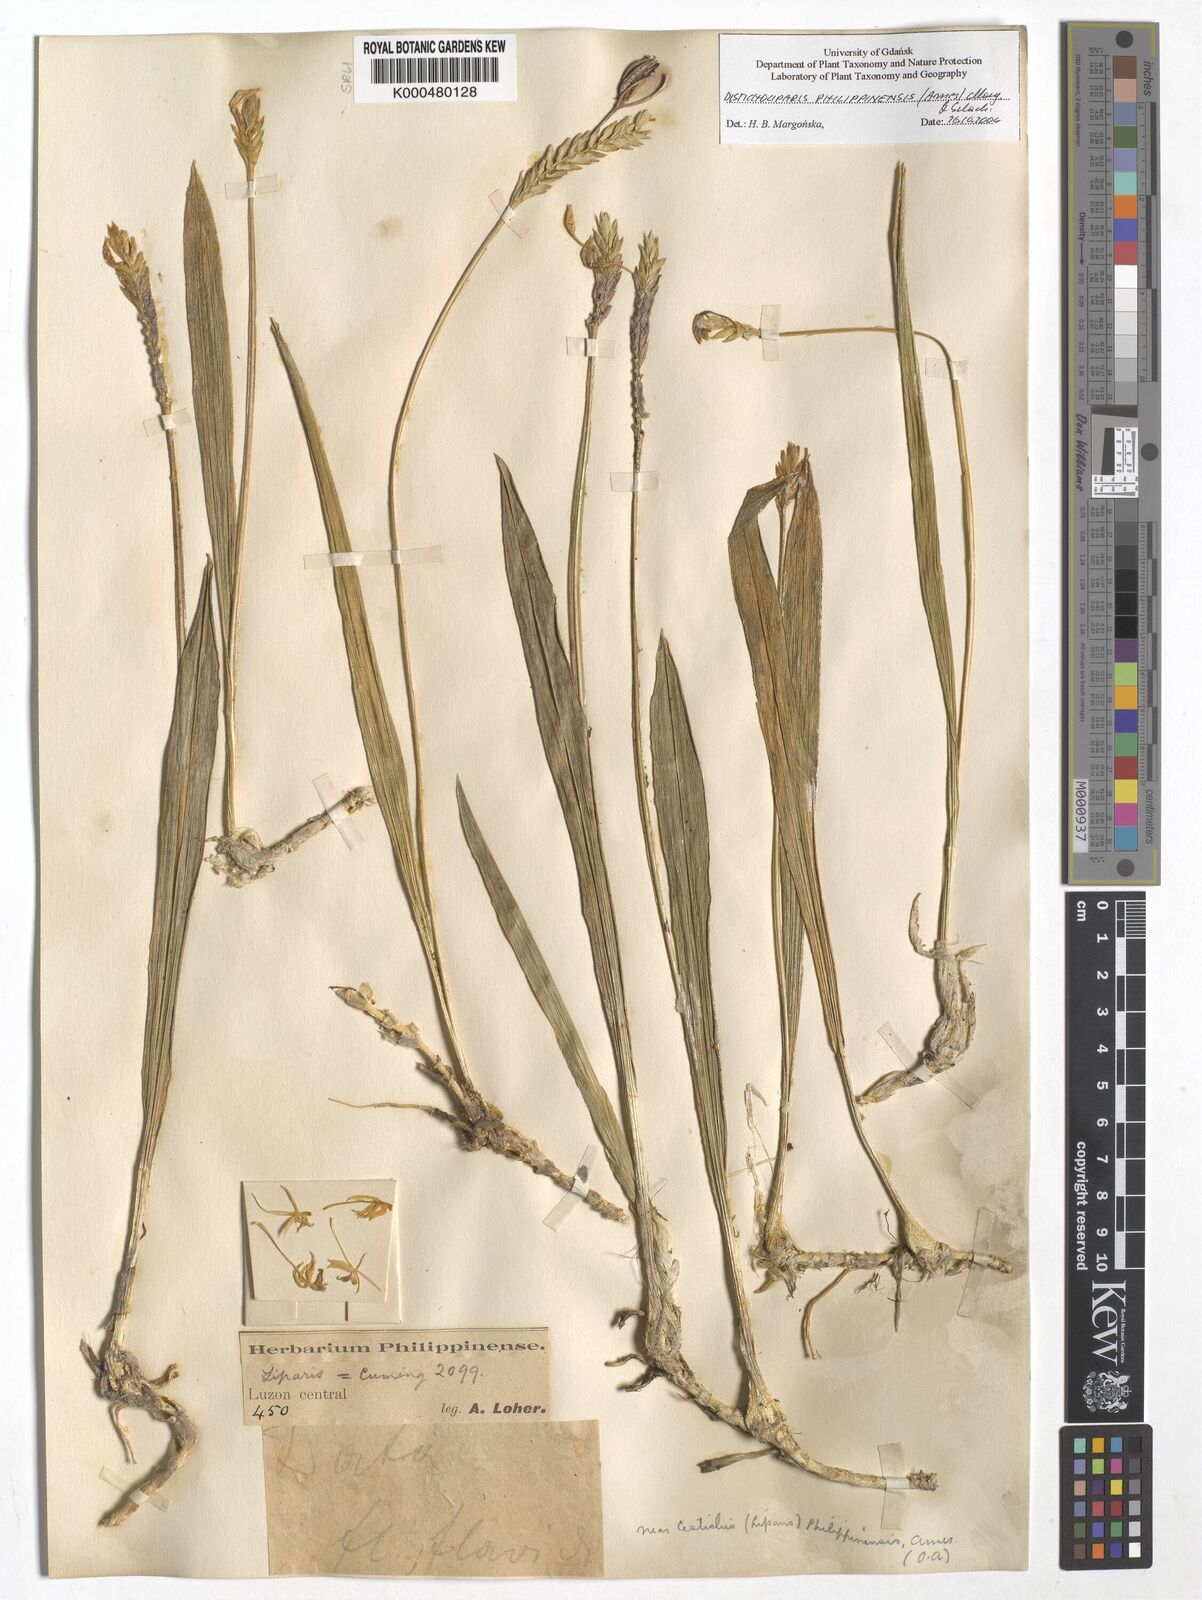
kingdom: Plantae
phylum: Tracheophyta
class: Liliopsida
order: Asparagales
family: Orchidaceae
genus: Liparis
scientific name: Liparis philippinensis
